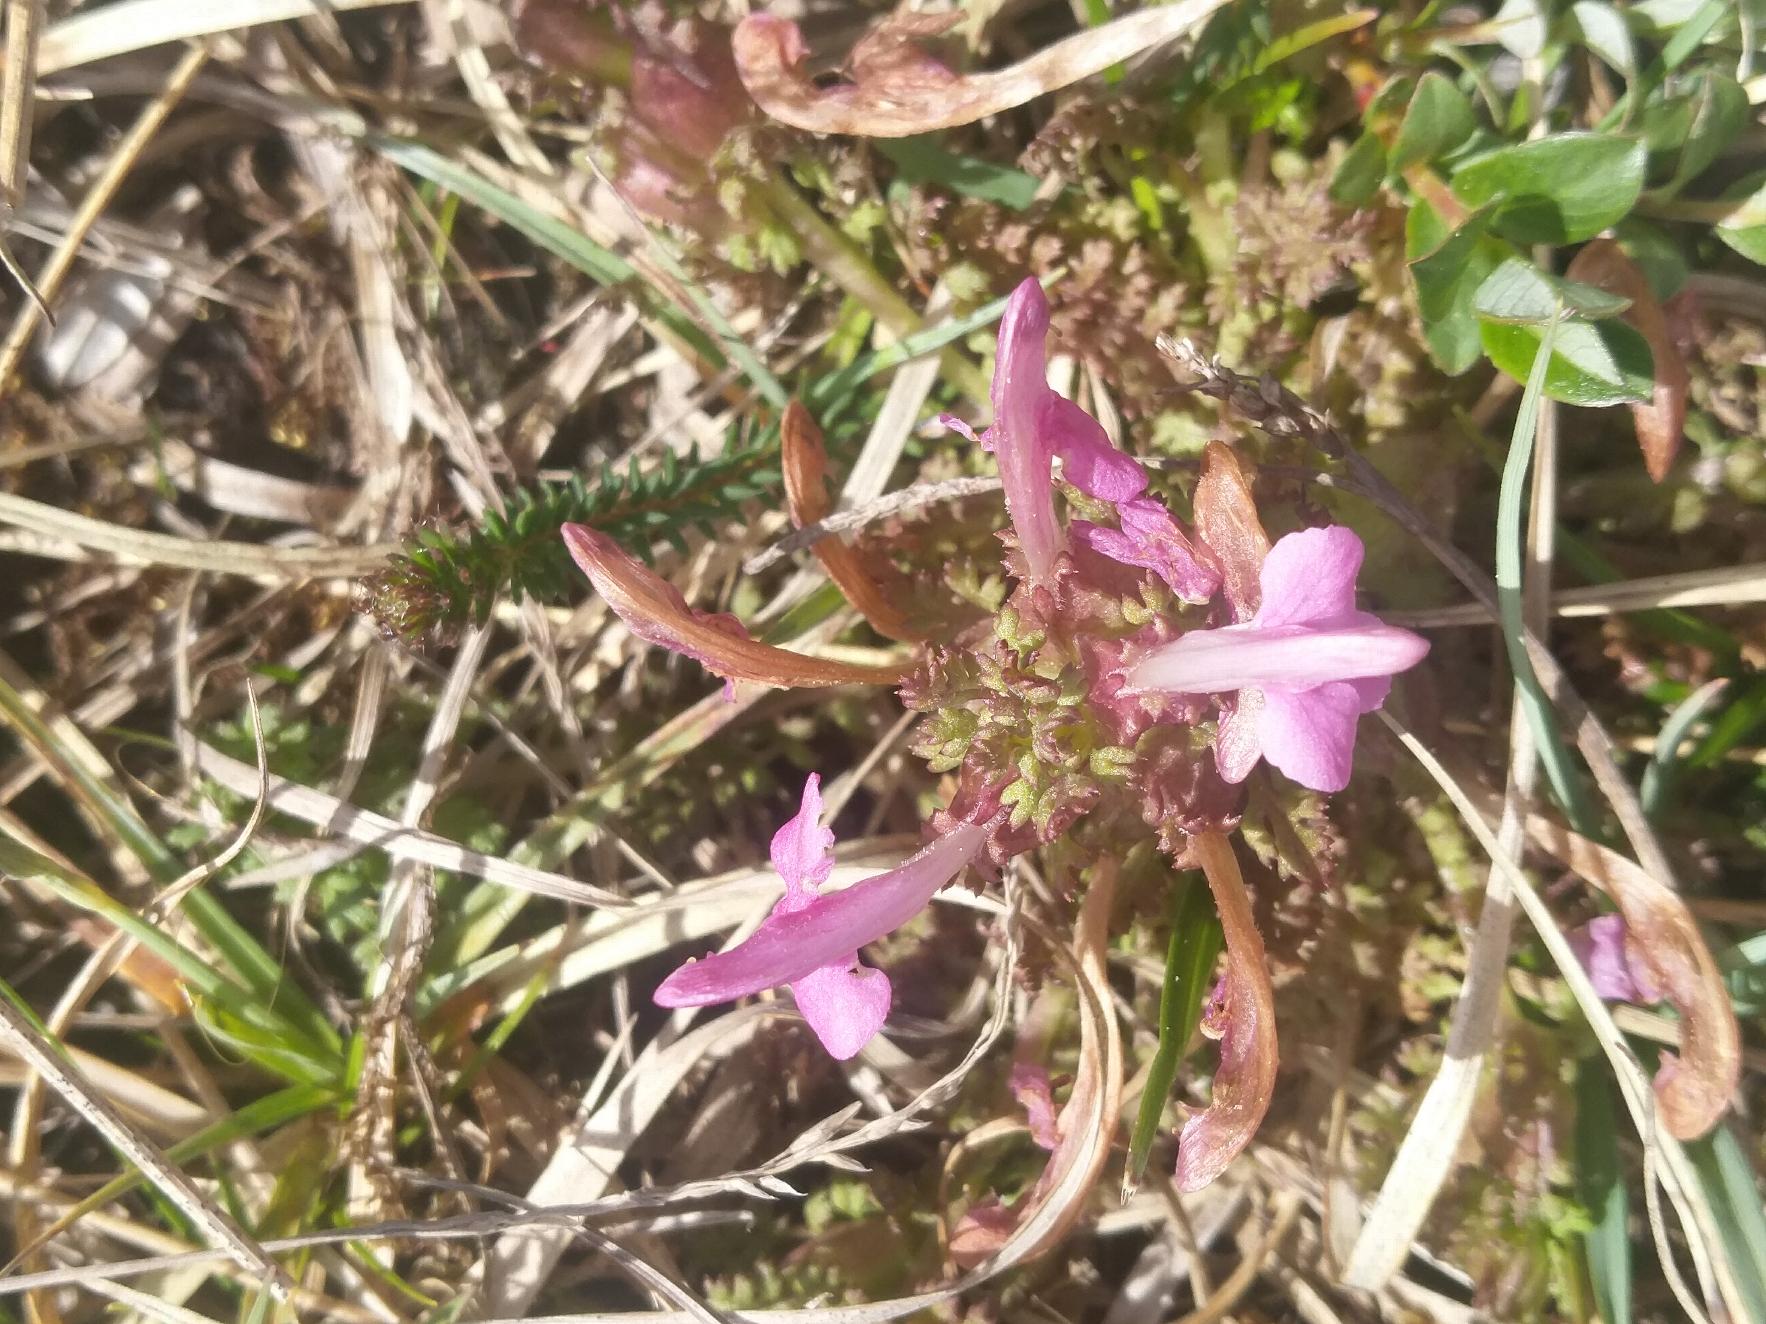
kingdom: Plantae
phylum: Tracheophyta
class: Magnoliopsida
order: Lamiales
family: Orobanchaceae
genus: Pedicularis
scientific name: Pedicularis sylvatica
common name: Mose-troldurt
